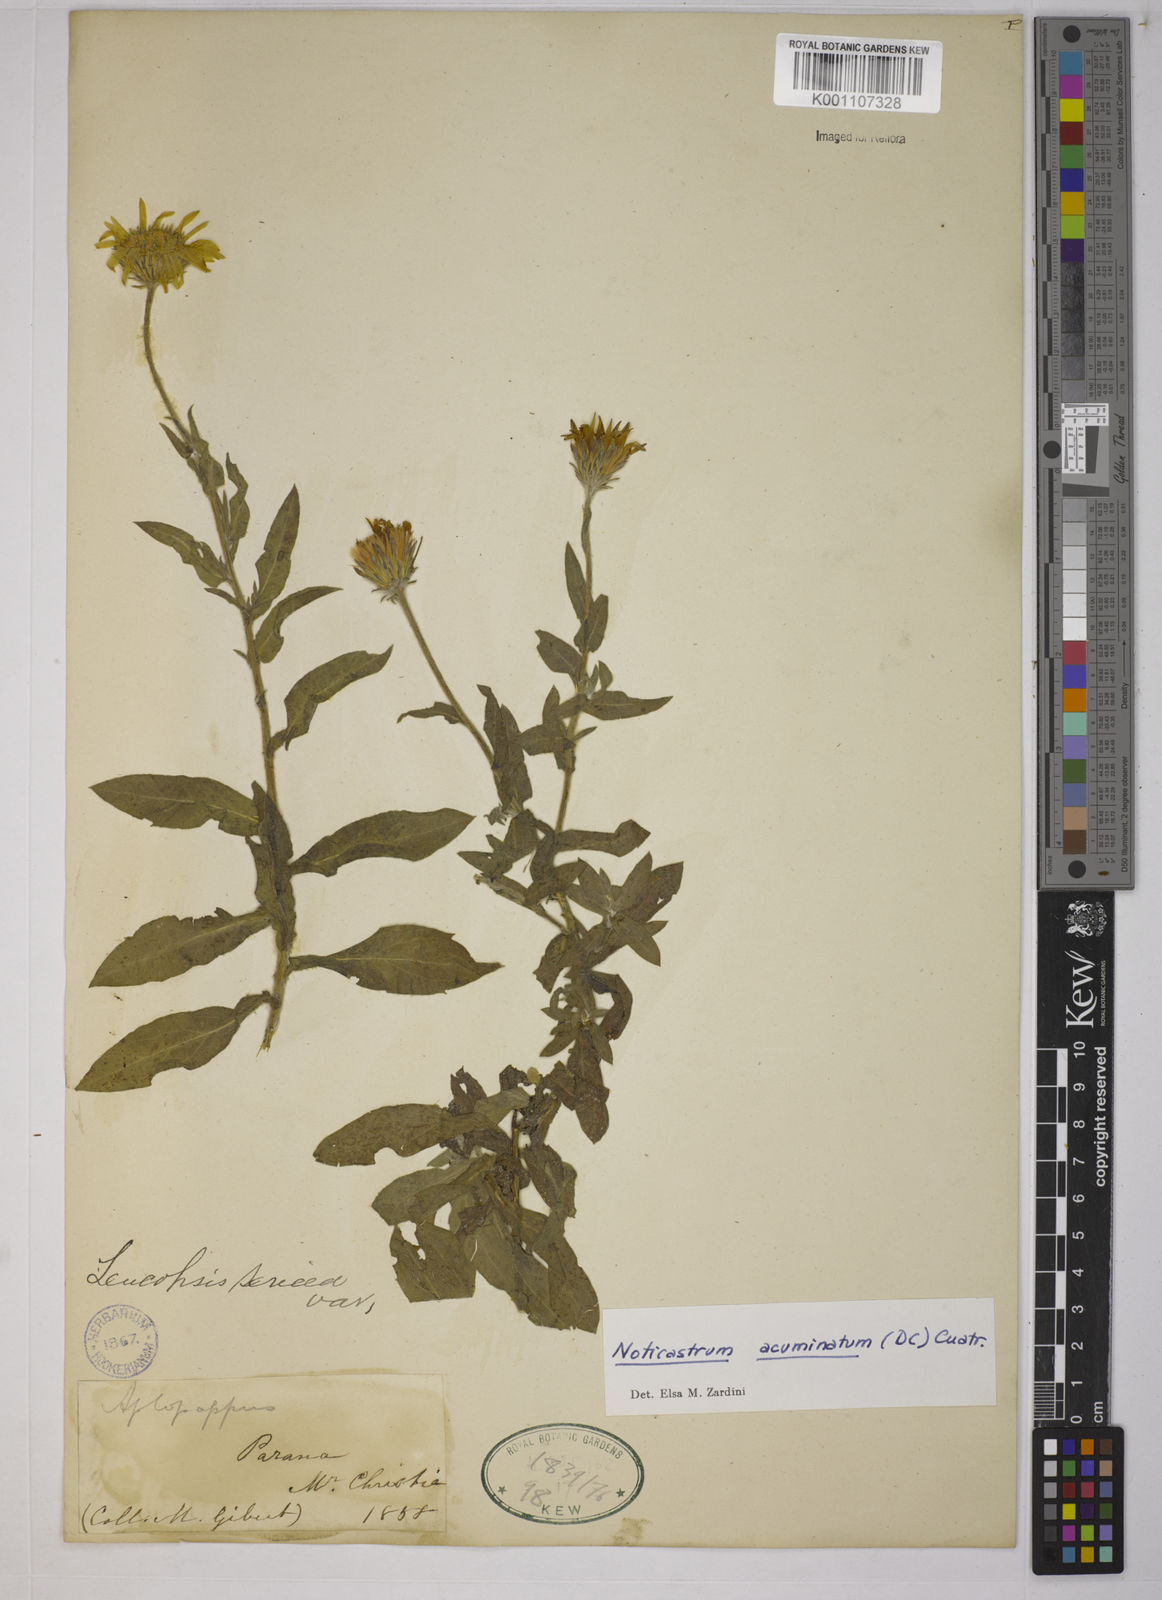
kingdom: Plantae
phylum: Tracheophyta
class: Magnoliopsida
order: Asterales
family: Asteraceae
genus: Noticastrum
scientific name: Noticastrum acuminatum
